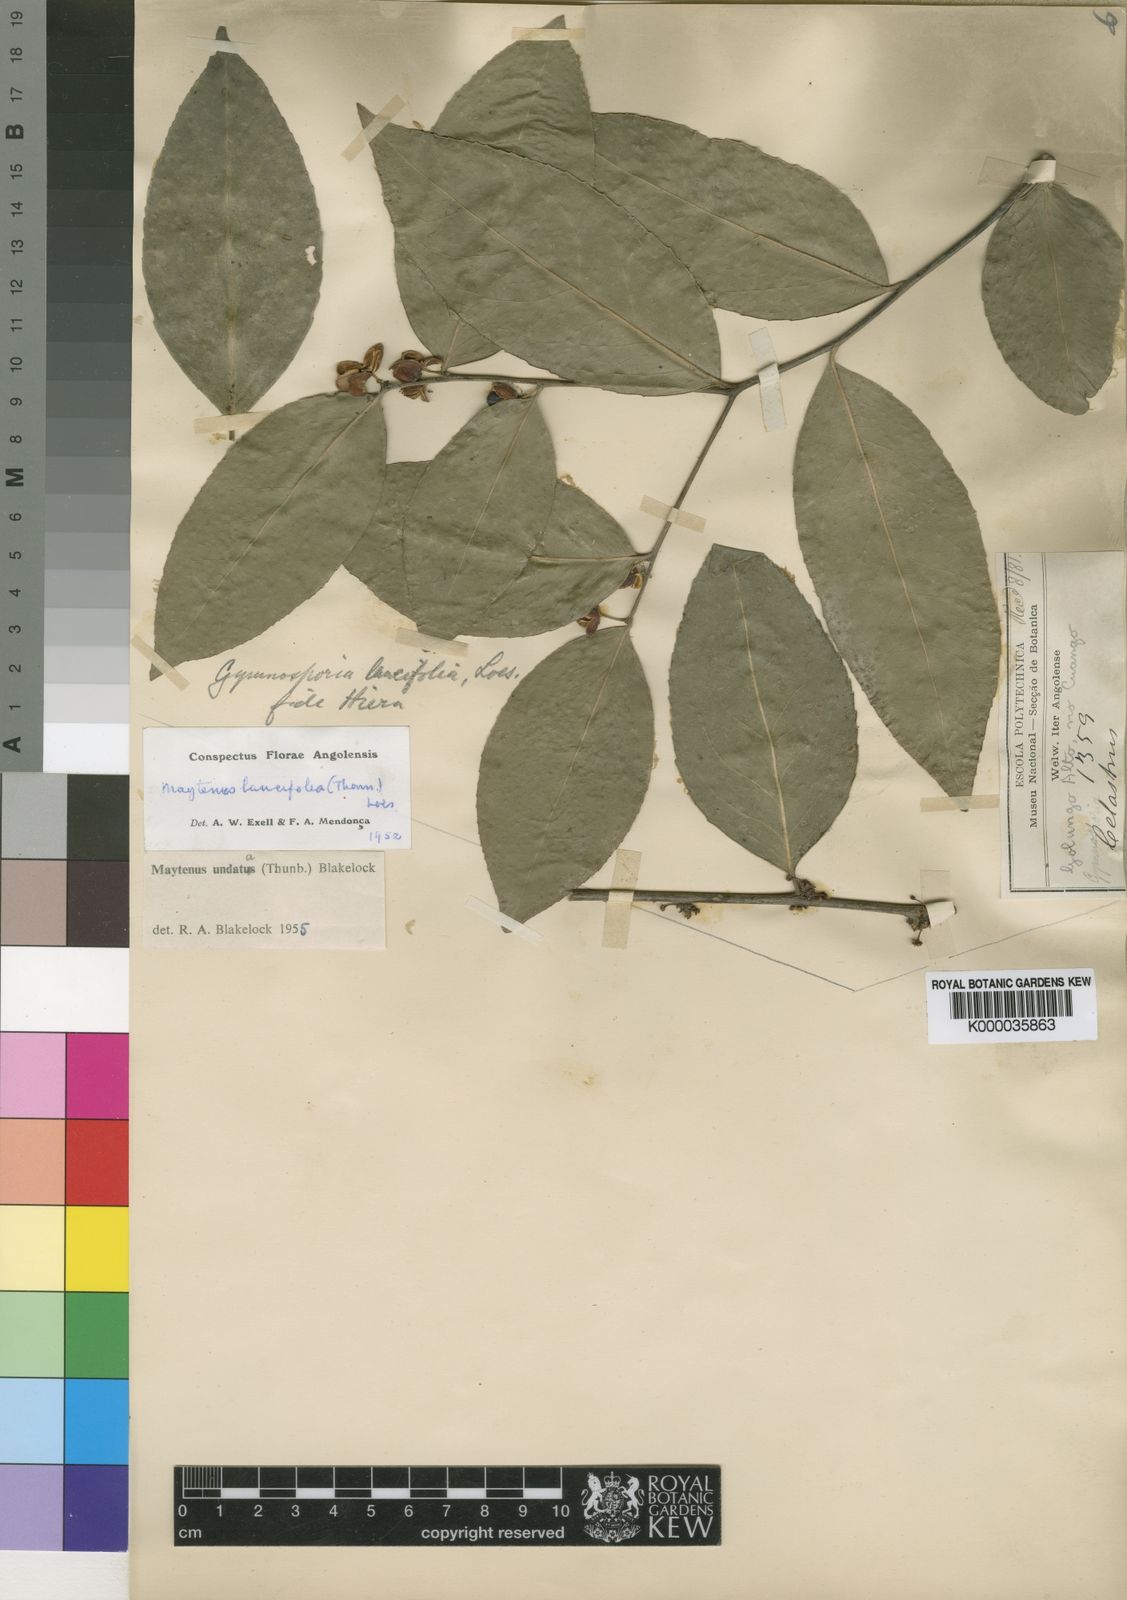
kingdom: Plantae
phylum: Tracheophyta
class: Magnoliopsida
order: Celastrales
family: Celastraceae
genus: Gymnosporia
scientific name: Gymnosporia undata
